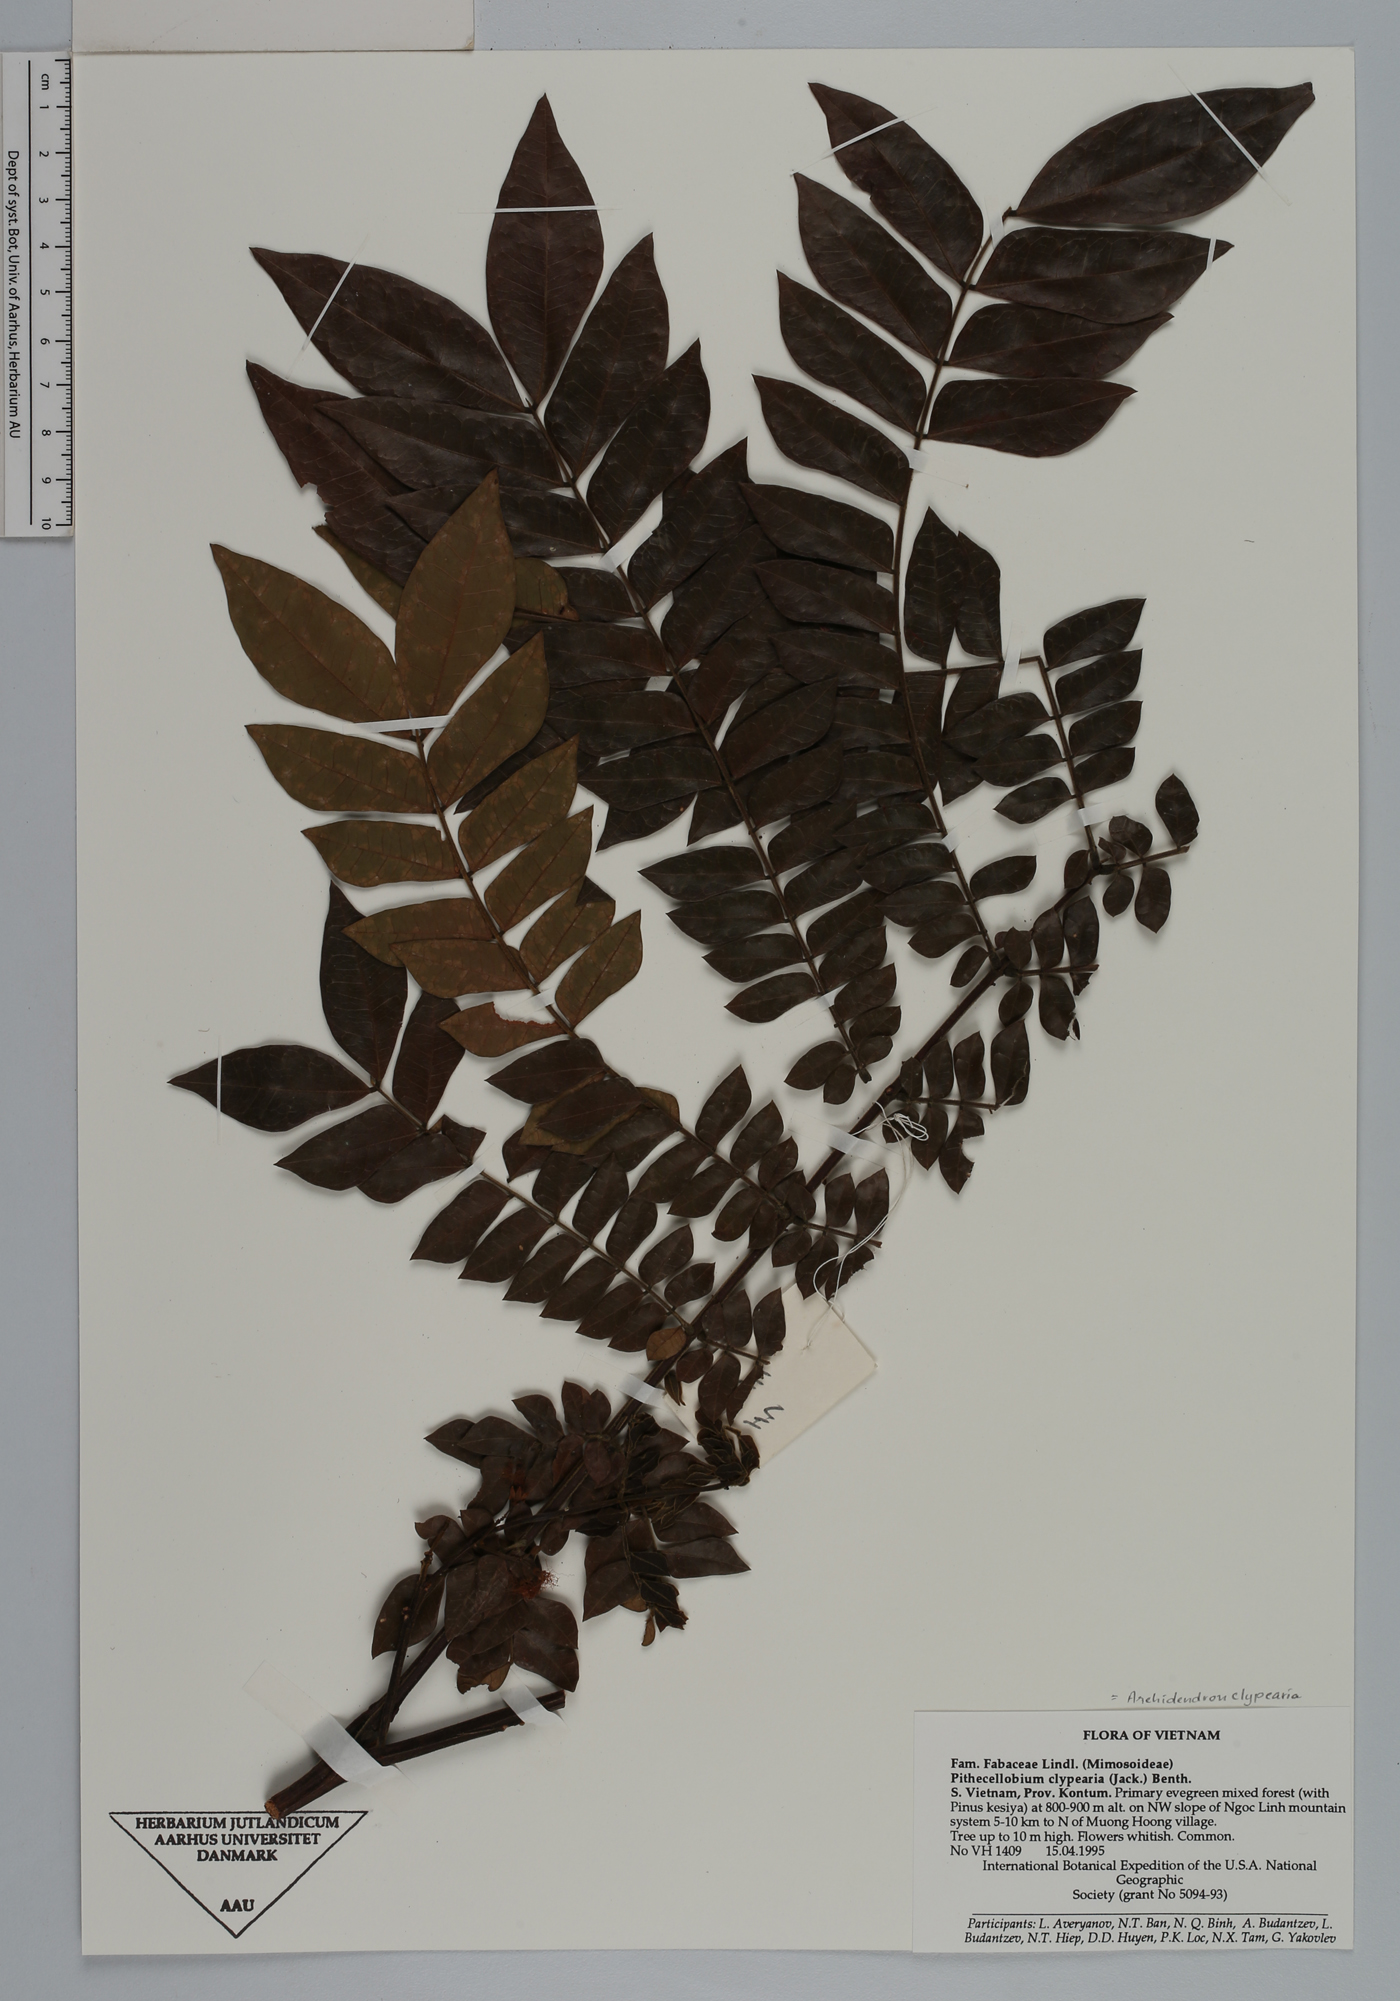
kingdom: Plantae
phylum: Tracheophyta
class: Magnoliopsida
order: Fabales
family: Fabaceae
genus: Archidendron
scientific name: Archidendron clypearia
